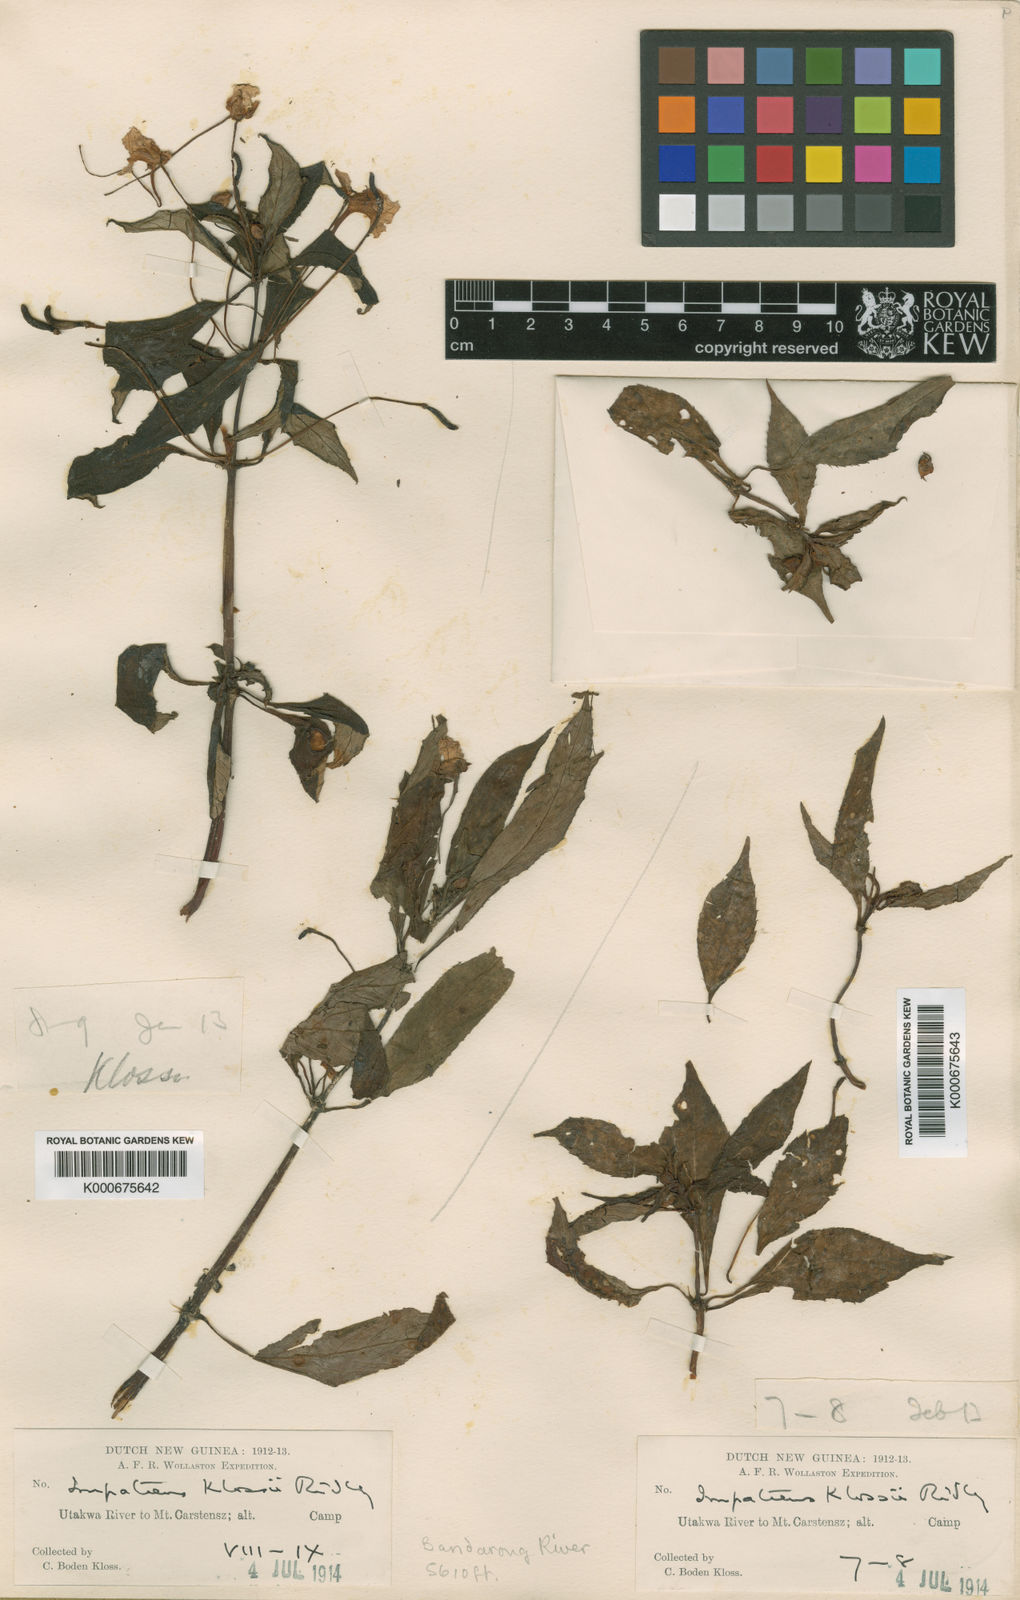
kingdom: Plantae
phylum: Tracheophyta
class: Magnoliopsida
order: Ericales
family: Balsaminaceae
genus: Impatiens
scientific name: Impatiens bodenii
